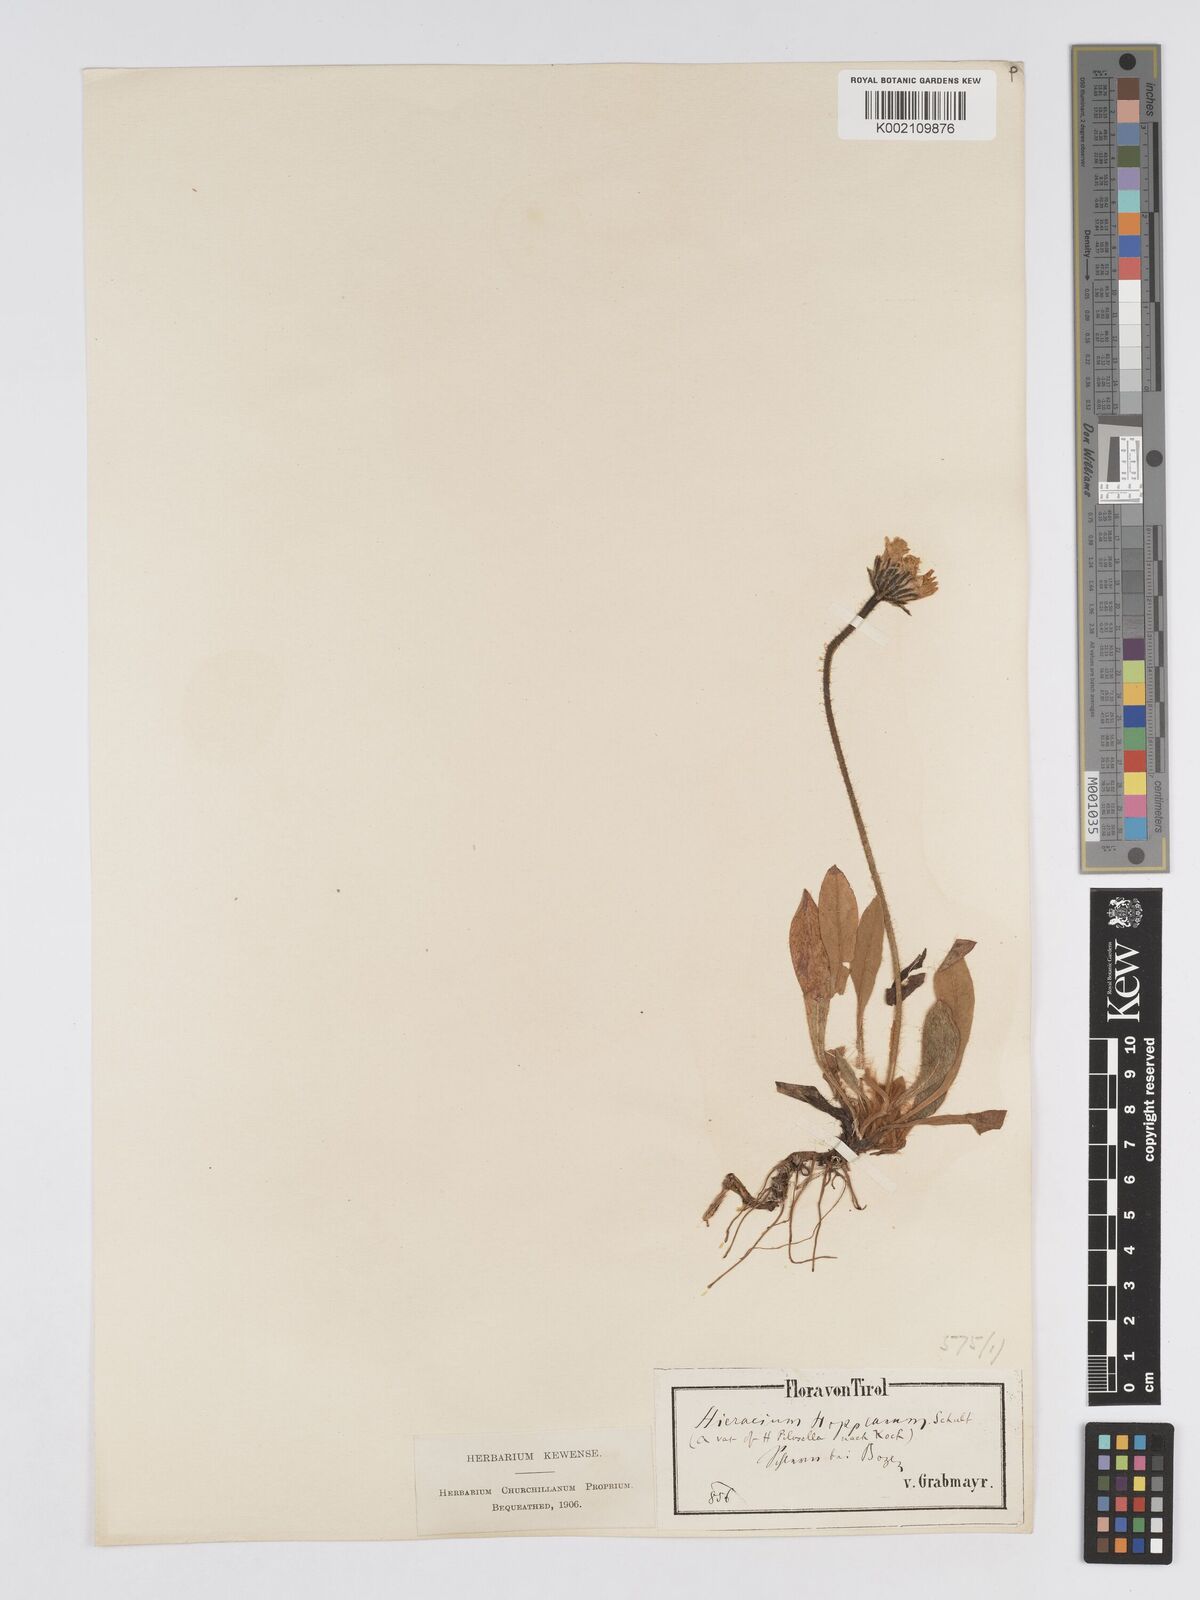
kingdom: Plantae
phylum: Tracheophyta
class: Magnoliopsida
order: Asterales
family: Asteraceae
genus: Pilosella
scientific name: Pilosella hoppeana
